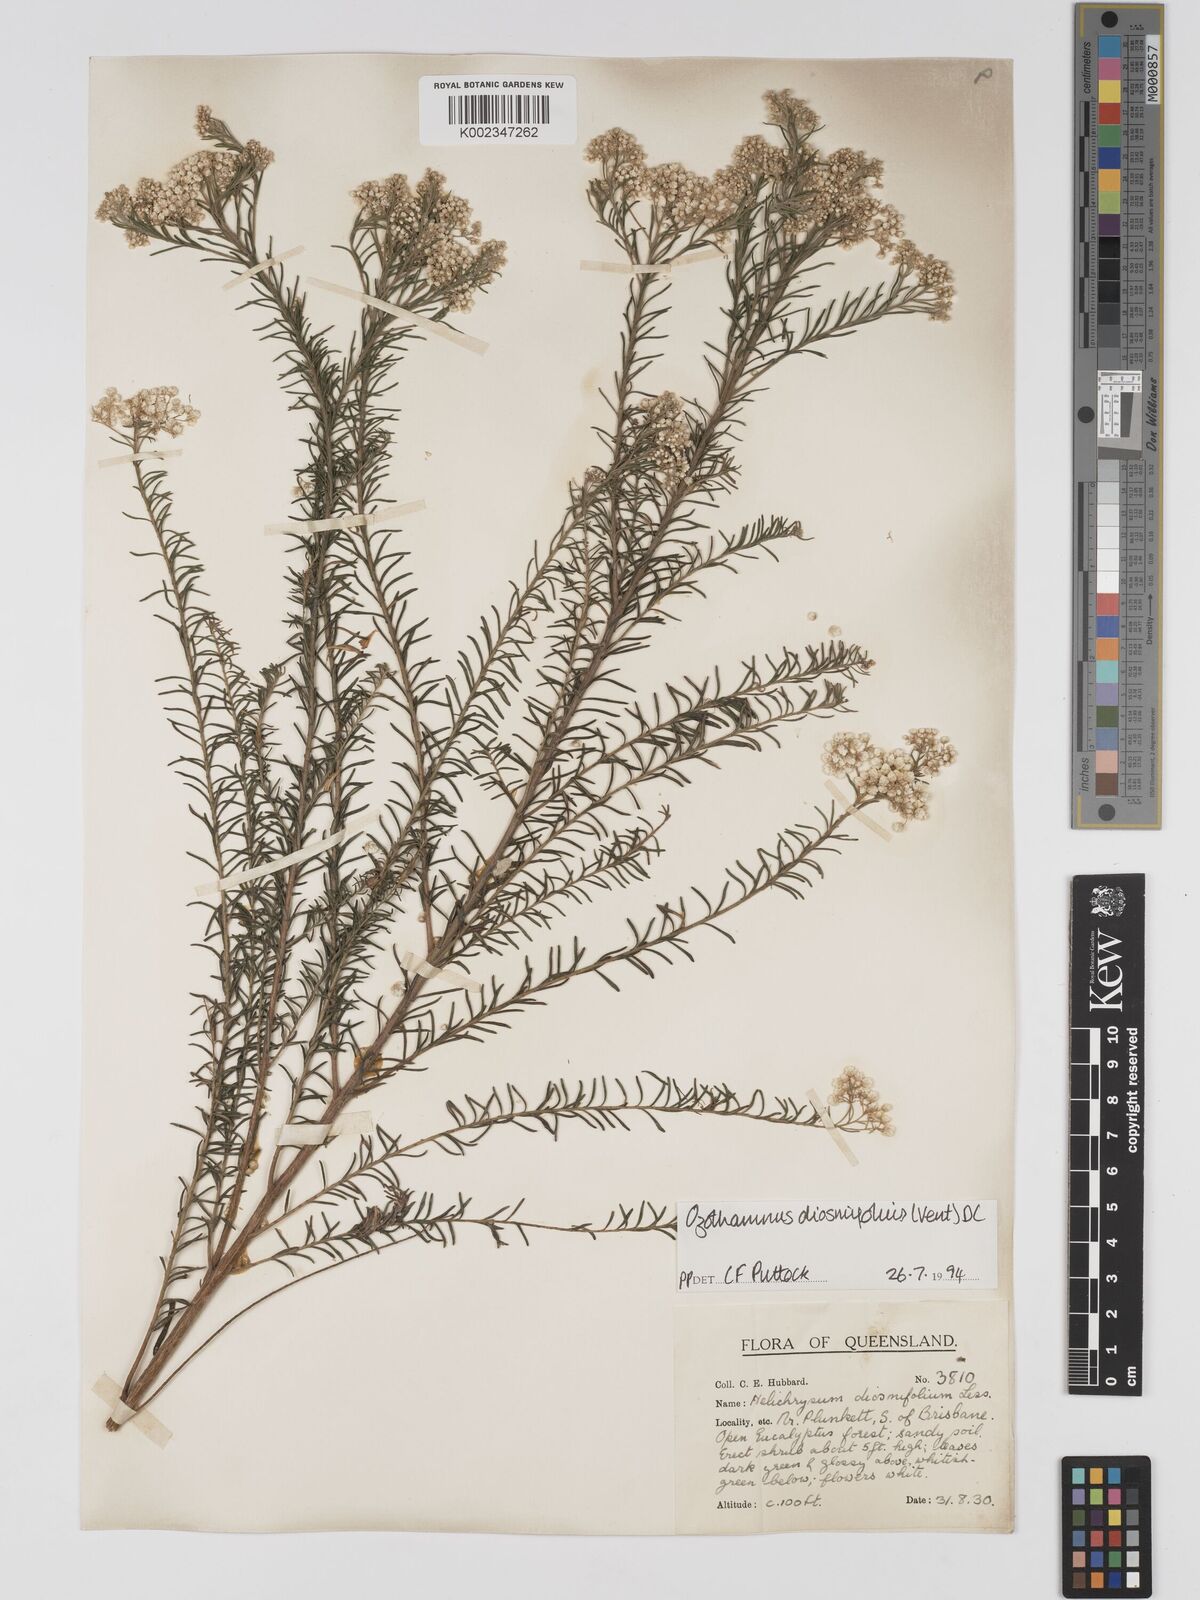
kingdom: Plantae
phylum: Tracheophyta
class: Magnoliopsida
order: Asterales
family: Asteraceae
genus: Ozothamnus
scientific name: Ozothamnus diosmifolius
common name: White-dogwood
